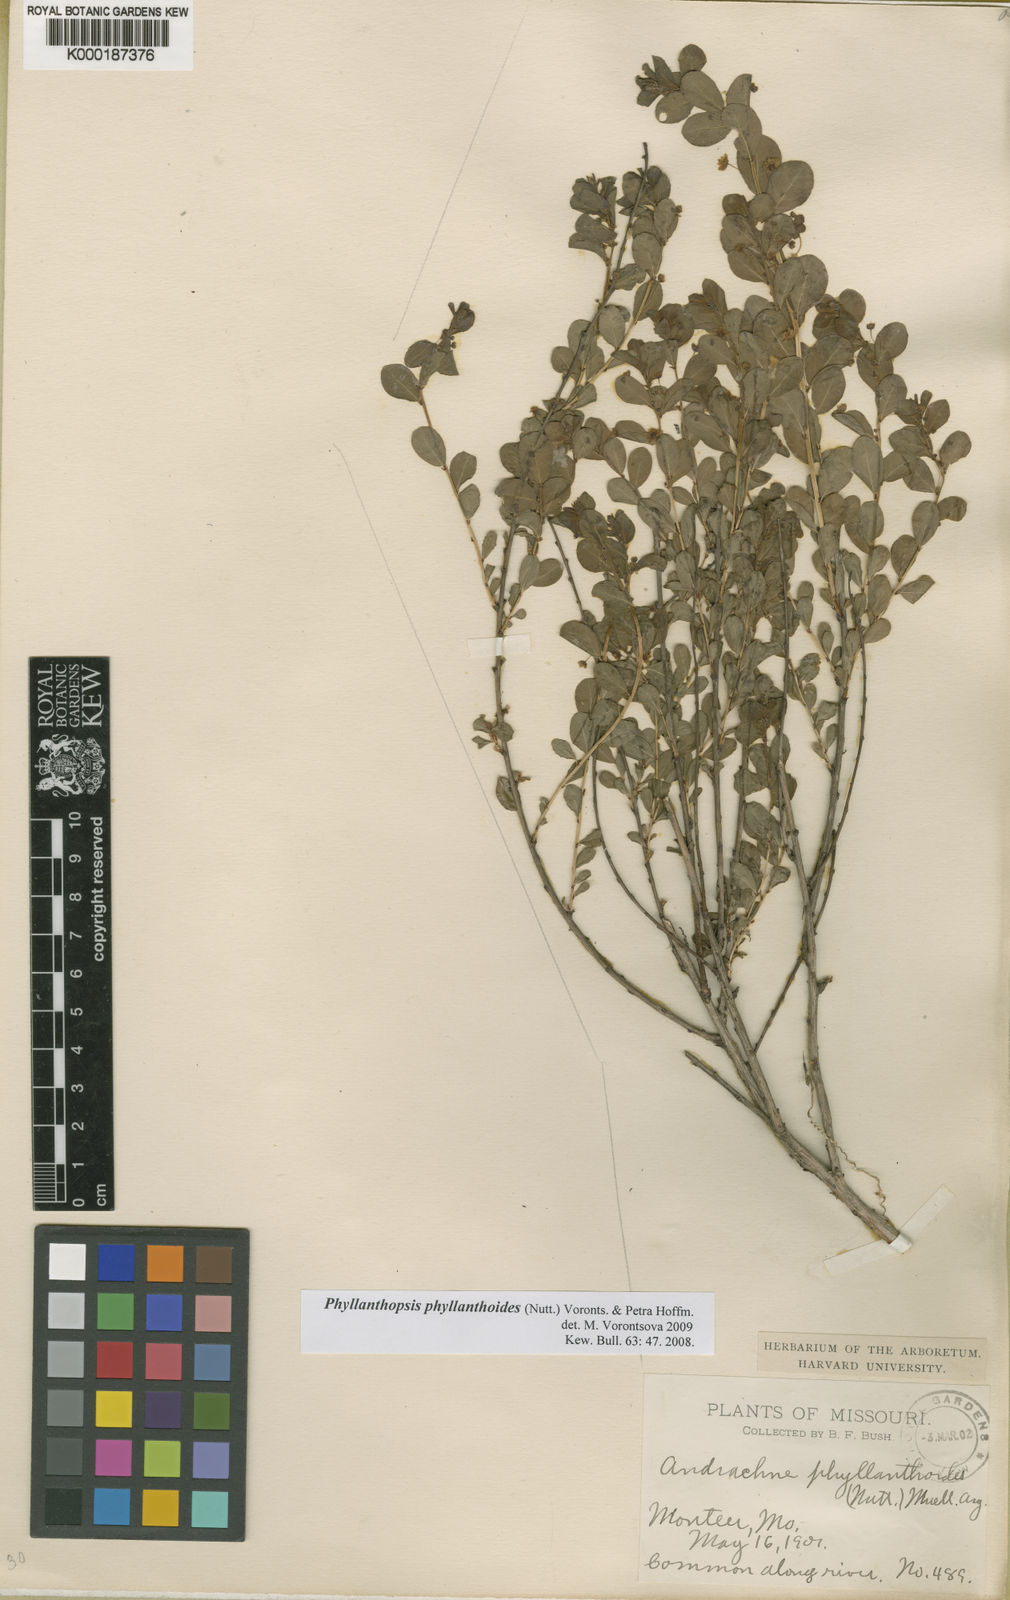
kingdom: Plantae
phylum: Tracheophyta
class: Magnoliopsida
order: Malpighiales
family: Phyllanthaceae
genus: Andrachne
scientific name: Andrachne
